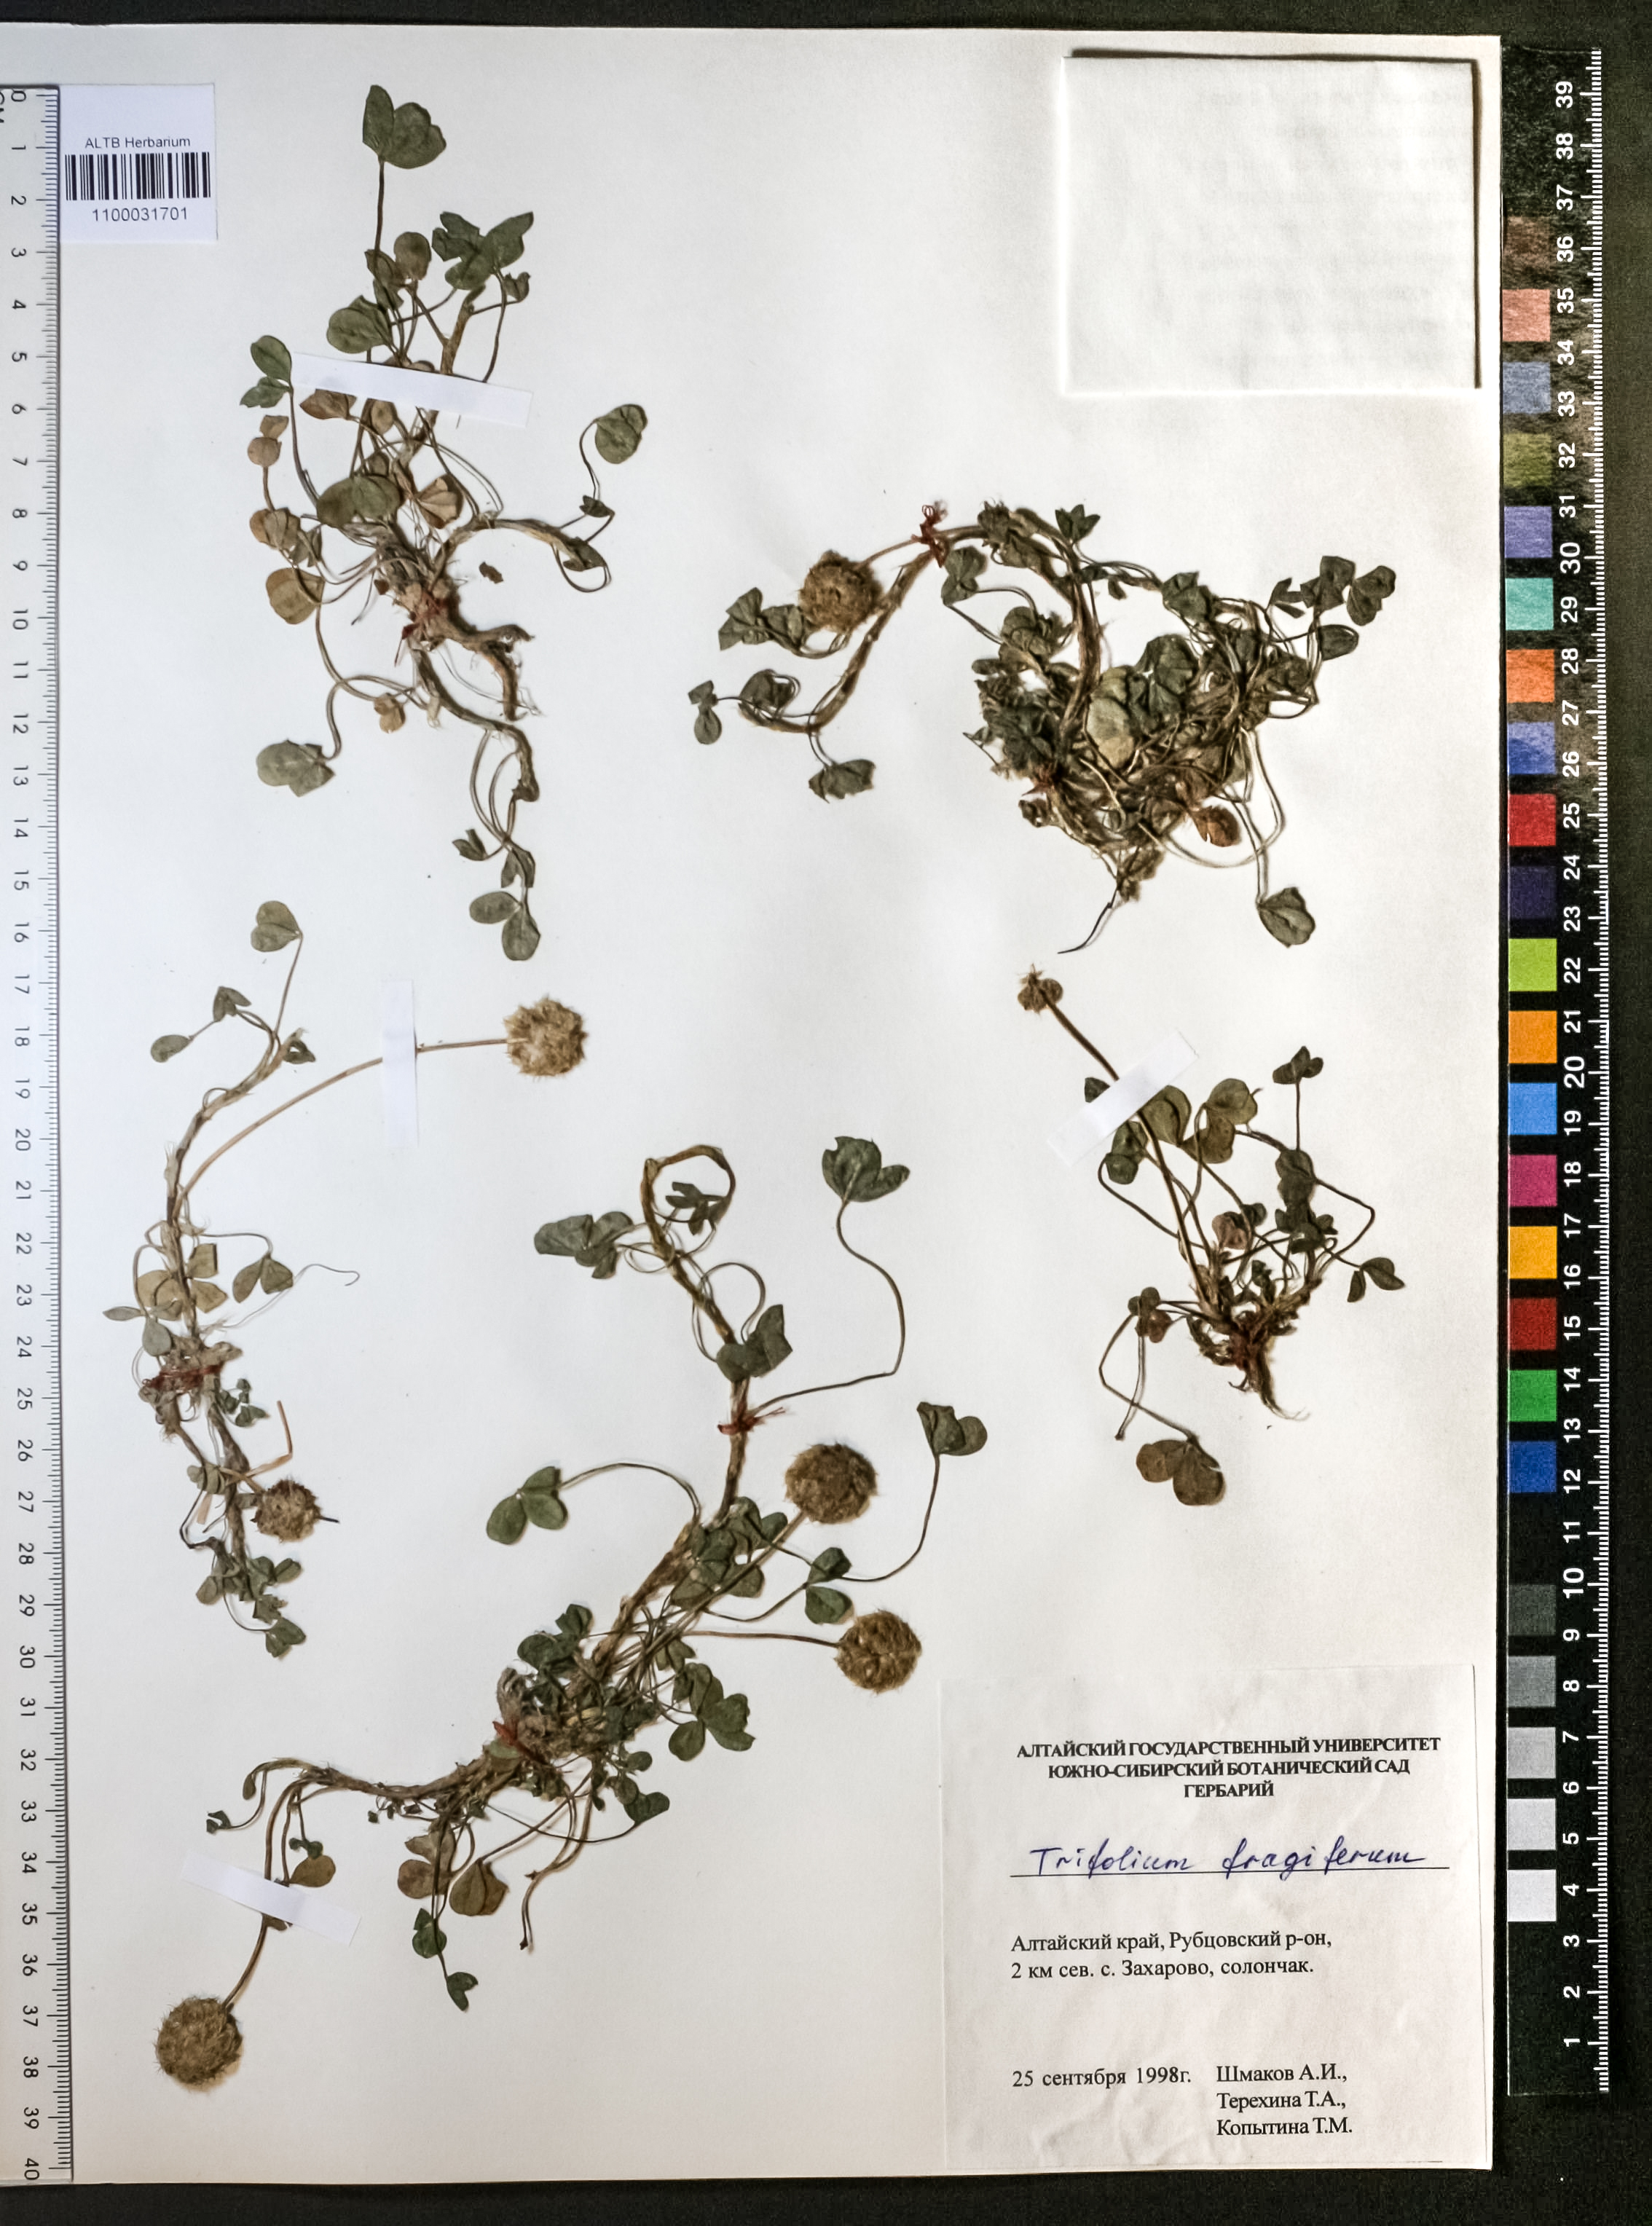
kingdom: Plantae
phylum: Tracheophyta
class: Magnoliopsida
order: Fabales
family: Fabaceae
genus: Trifolium
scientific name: Trifolium fragiferum
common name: Strawberry clover
